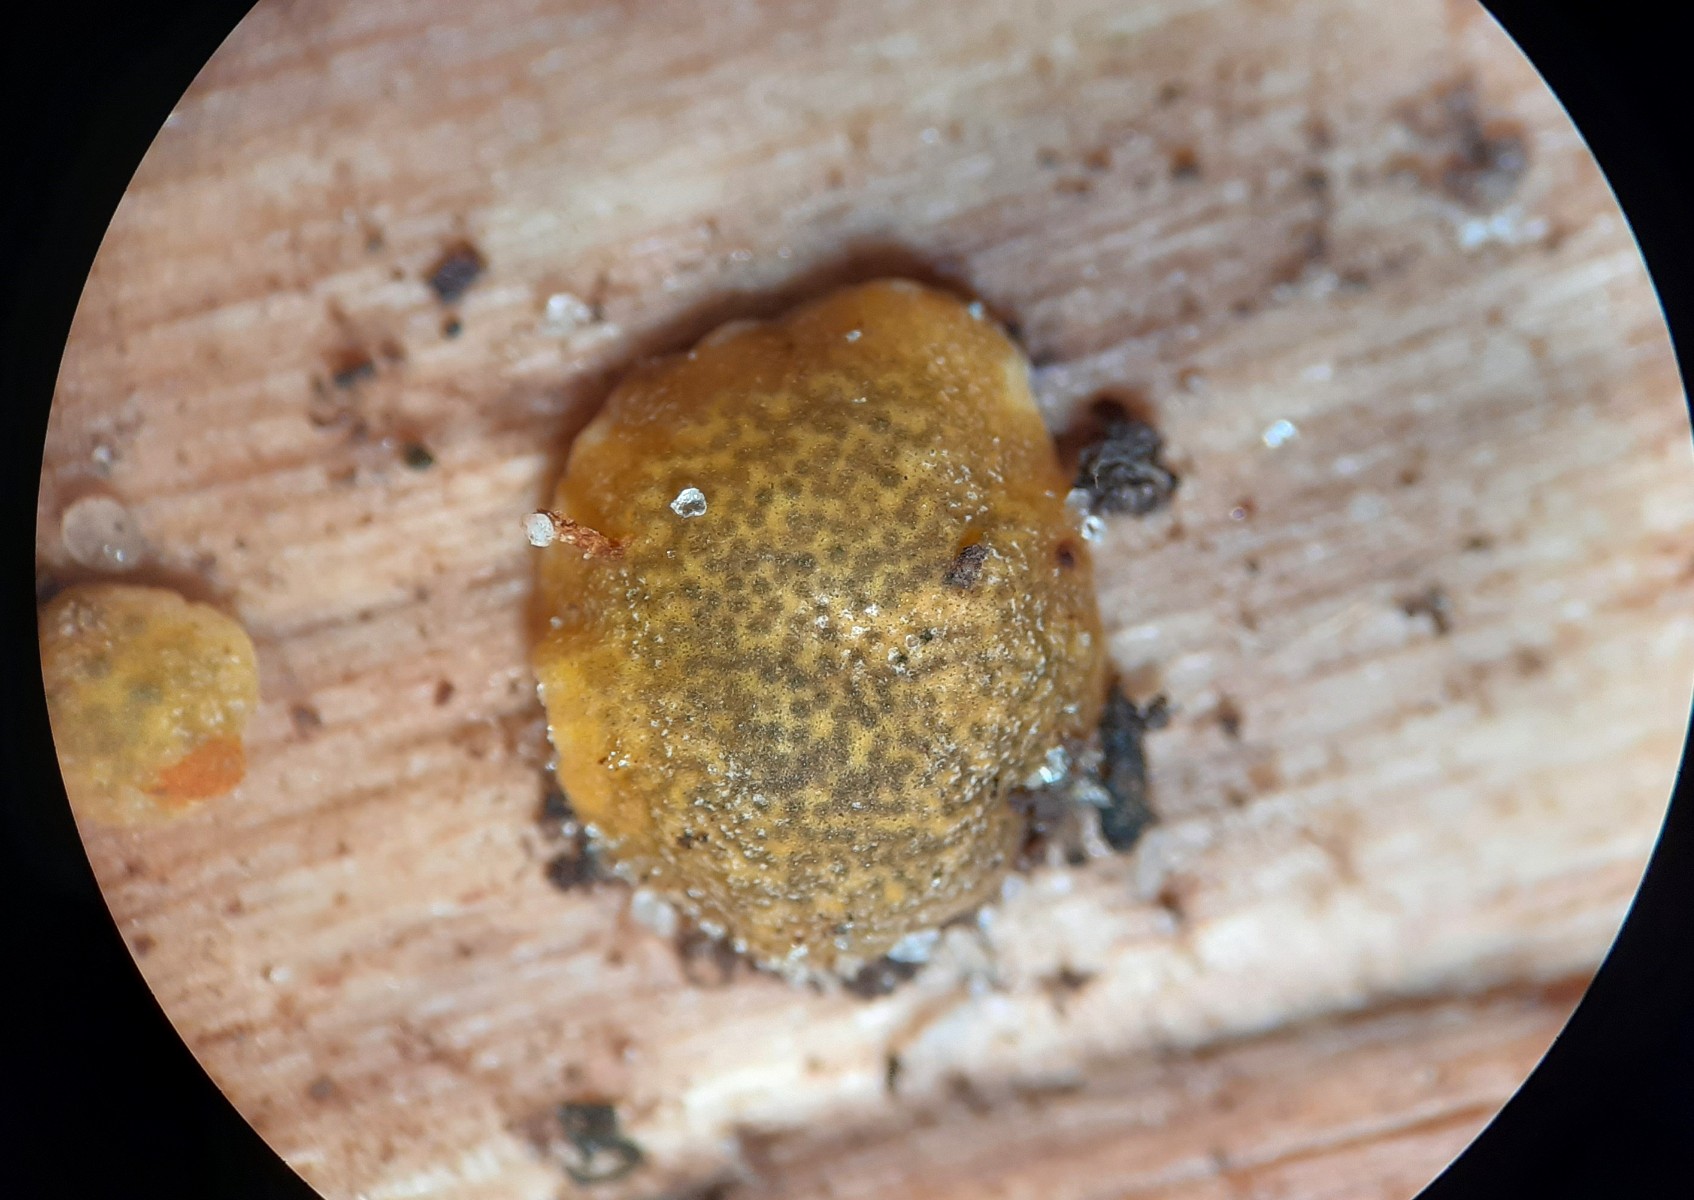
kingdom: Fungi
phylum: Ascomycota
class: Sordariomycetes
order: Hypocreales
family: Hypocreaceae
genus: Trichoderma
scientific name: Trichoderma aureoviride
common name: æggegul kødkerne
